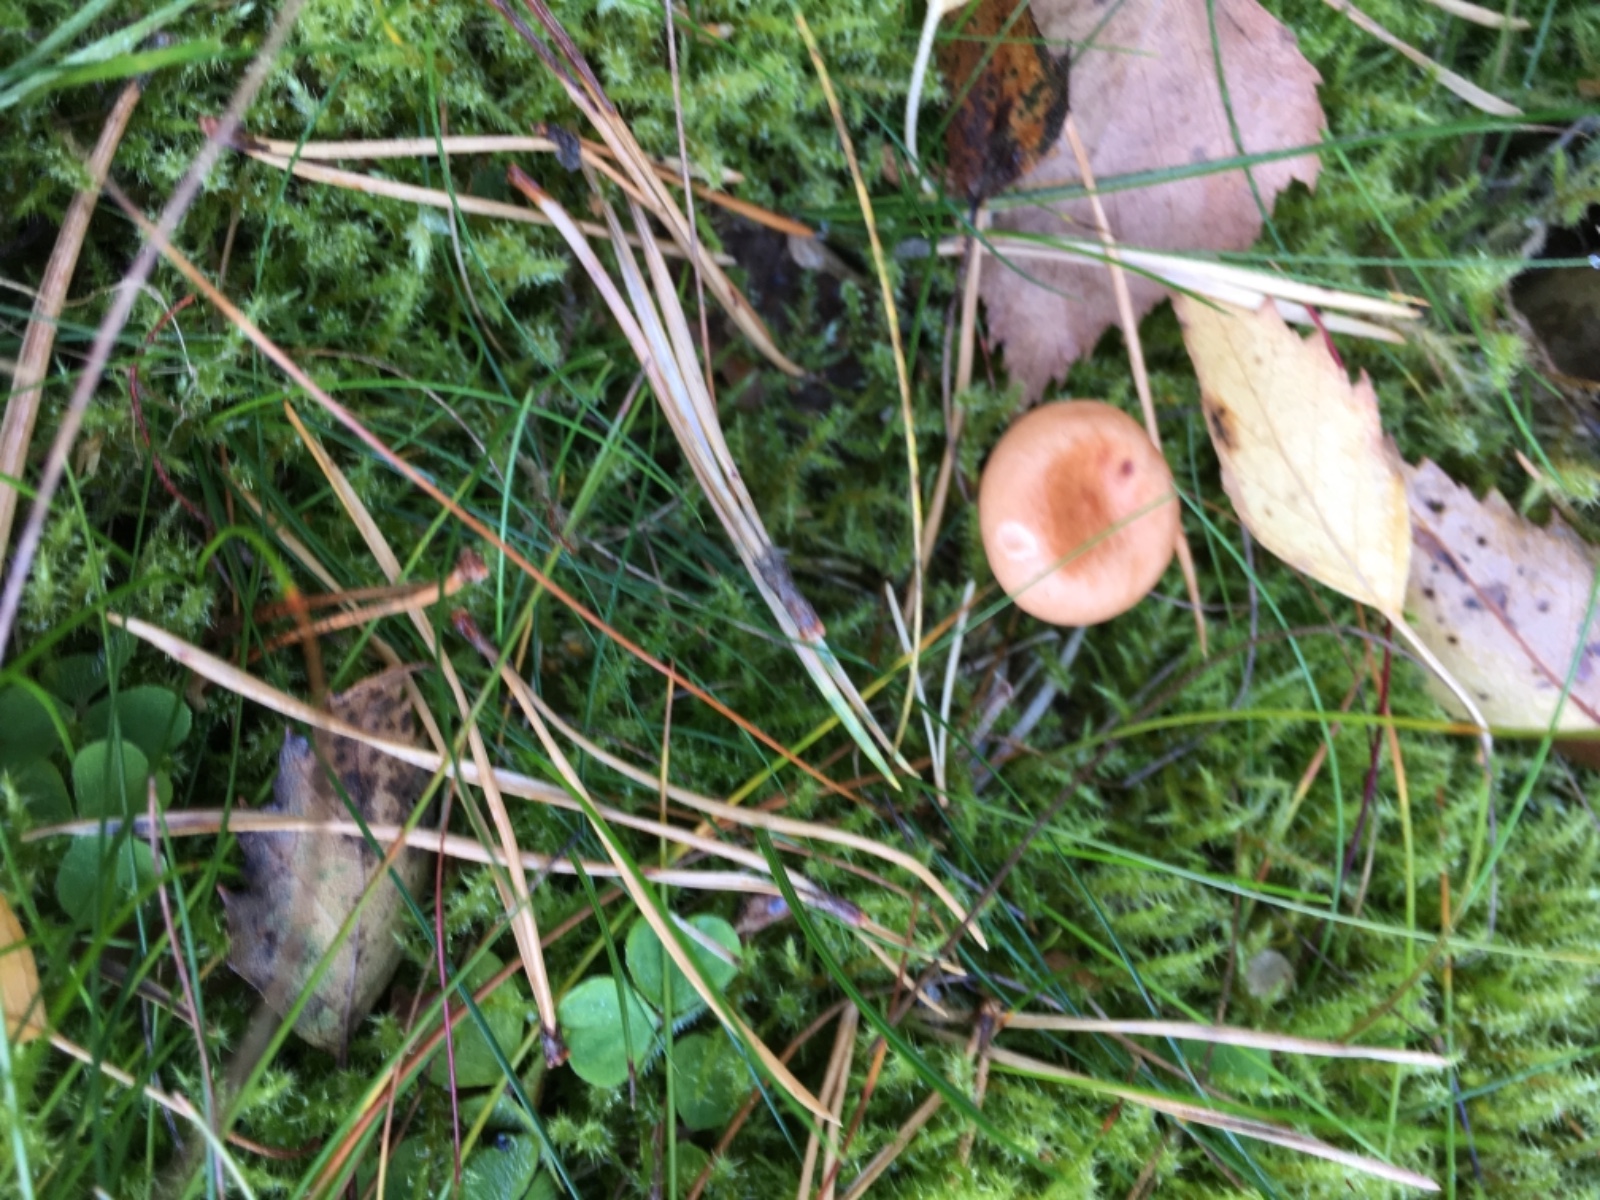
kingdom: Fungi
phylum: Basidiomycota
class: Agaricomycetes
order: Russulales
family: Russulaceae
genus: Lactarius
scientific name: Lactarius
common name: mælkehat
